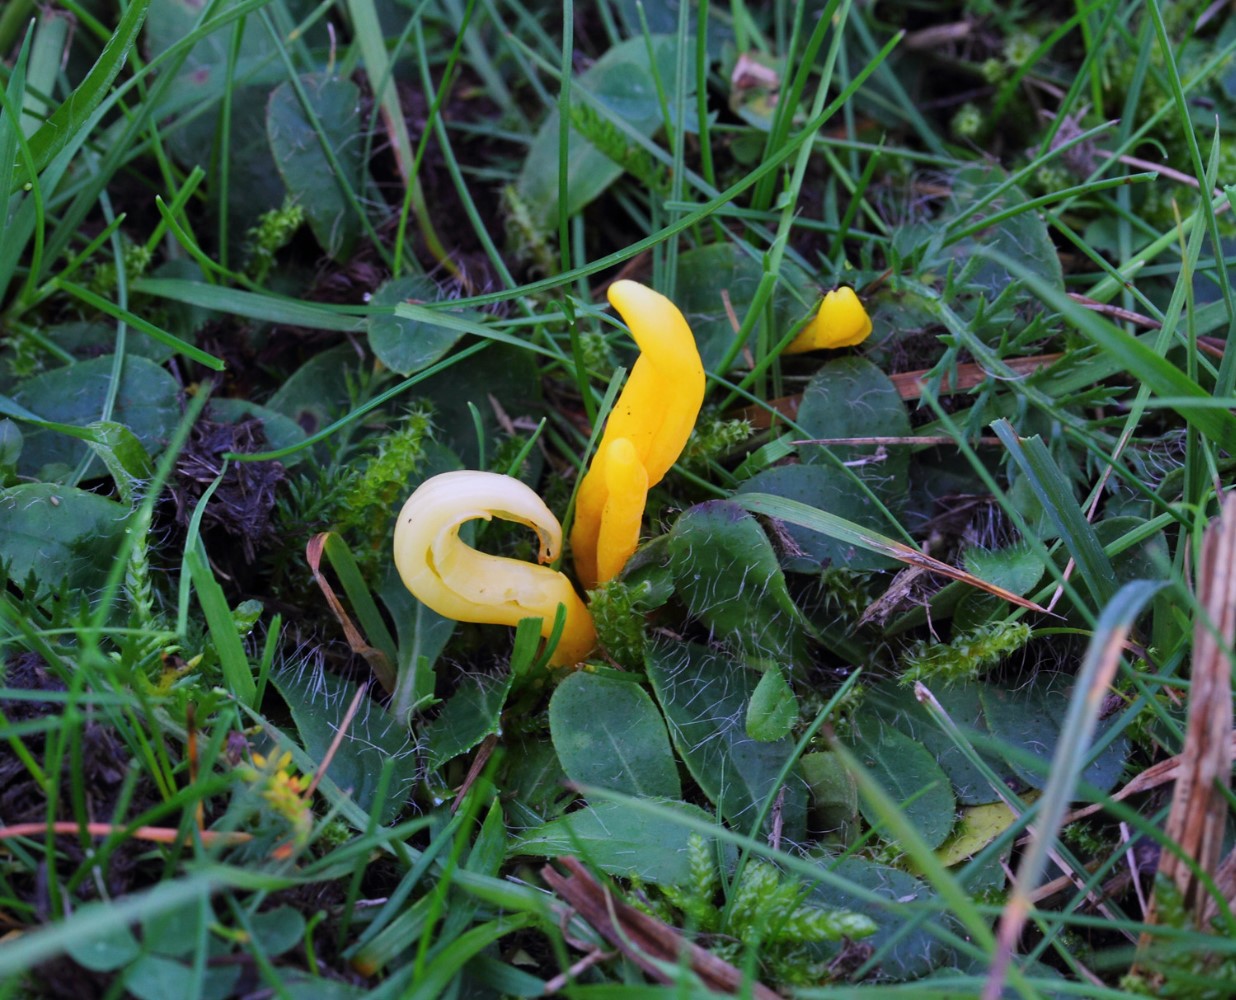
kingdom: Fungi
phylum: Basidiomycota
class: Agaricomycetes
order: Agaricales
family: Clavariaceae
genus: Clavulinopsis
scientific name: Clavulinopsis
